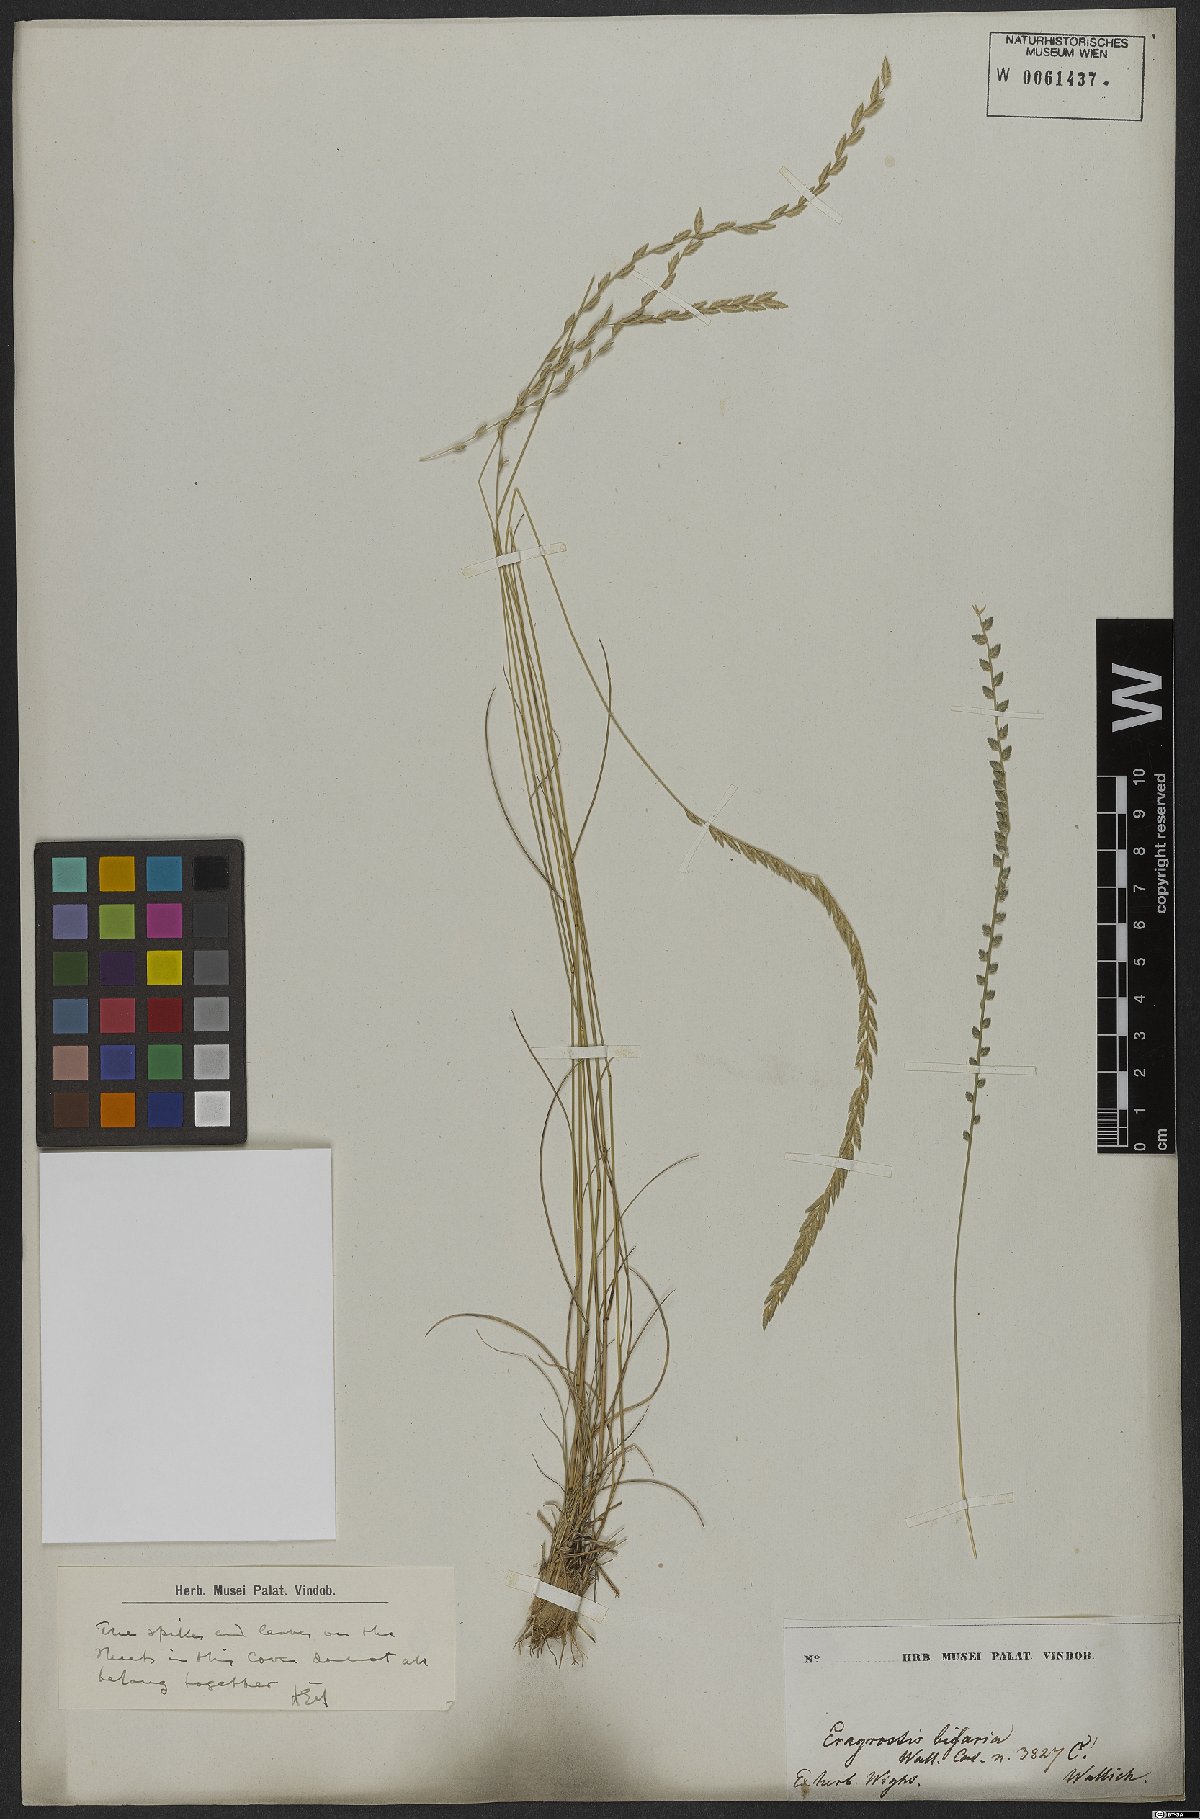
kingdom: Plantae
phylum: Tracheophyta
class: Liliopsida
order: Poales
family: Poaceae
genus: Eragrostiella
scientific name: Eragrostiella bifaria
